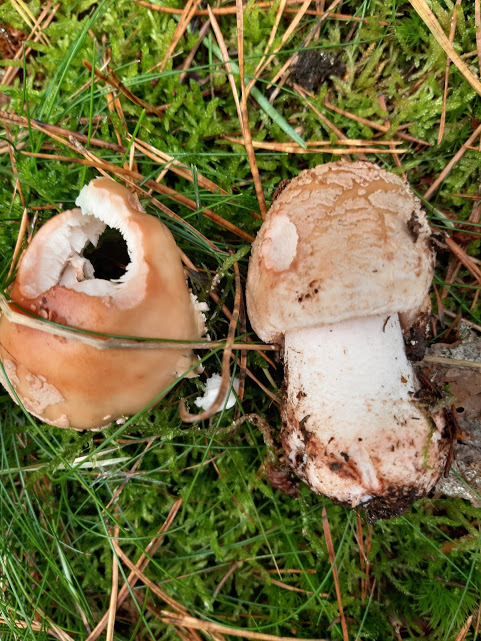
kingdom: Fungi
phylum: Basidiomycota
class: Agaricomycetes
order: Agaricales
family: Amanitaceae
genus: Amanita
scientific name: Amanita rubescens
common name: rødmende fluesvamp
